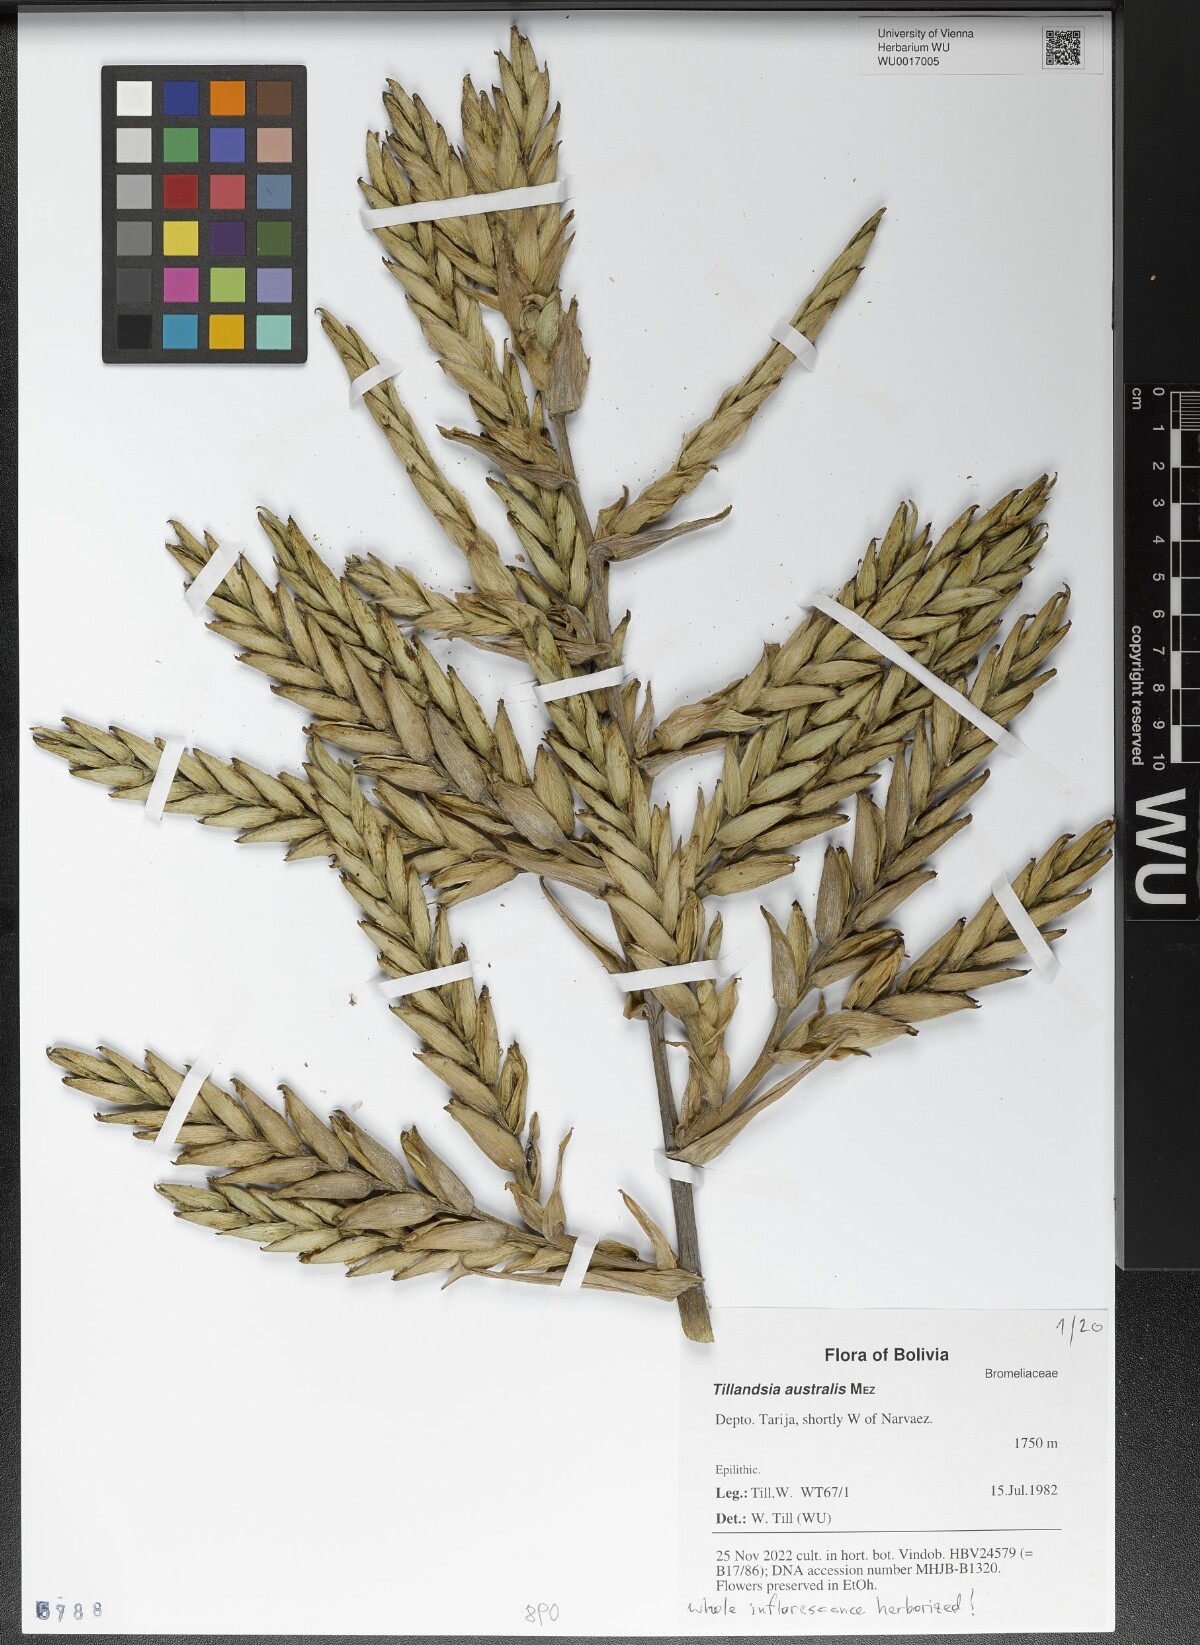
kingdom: Plantae
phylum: Tracheophyta
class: Liliopsida
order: Poales
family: Bromeliaceae
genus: Tillandsia
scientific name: Tillandsia australis
